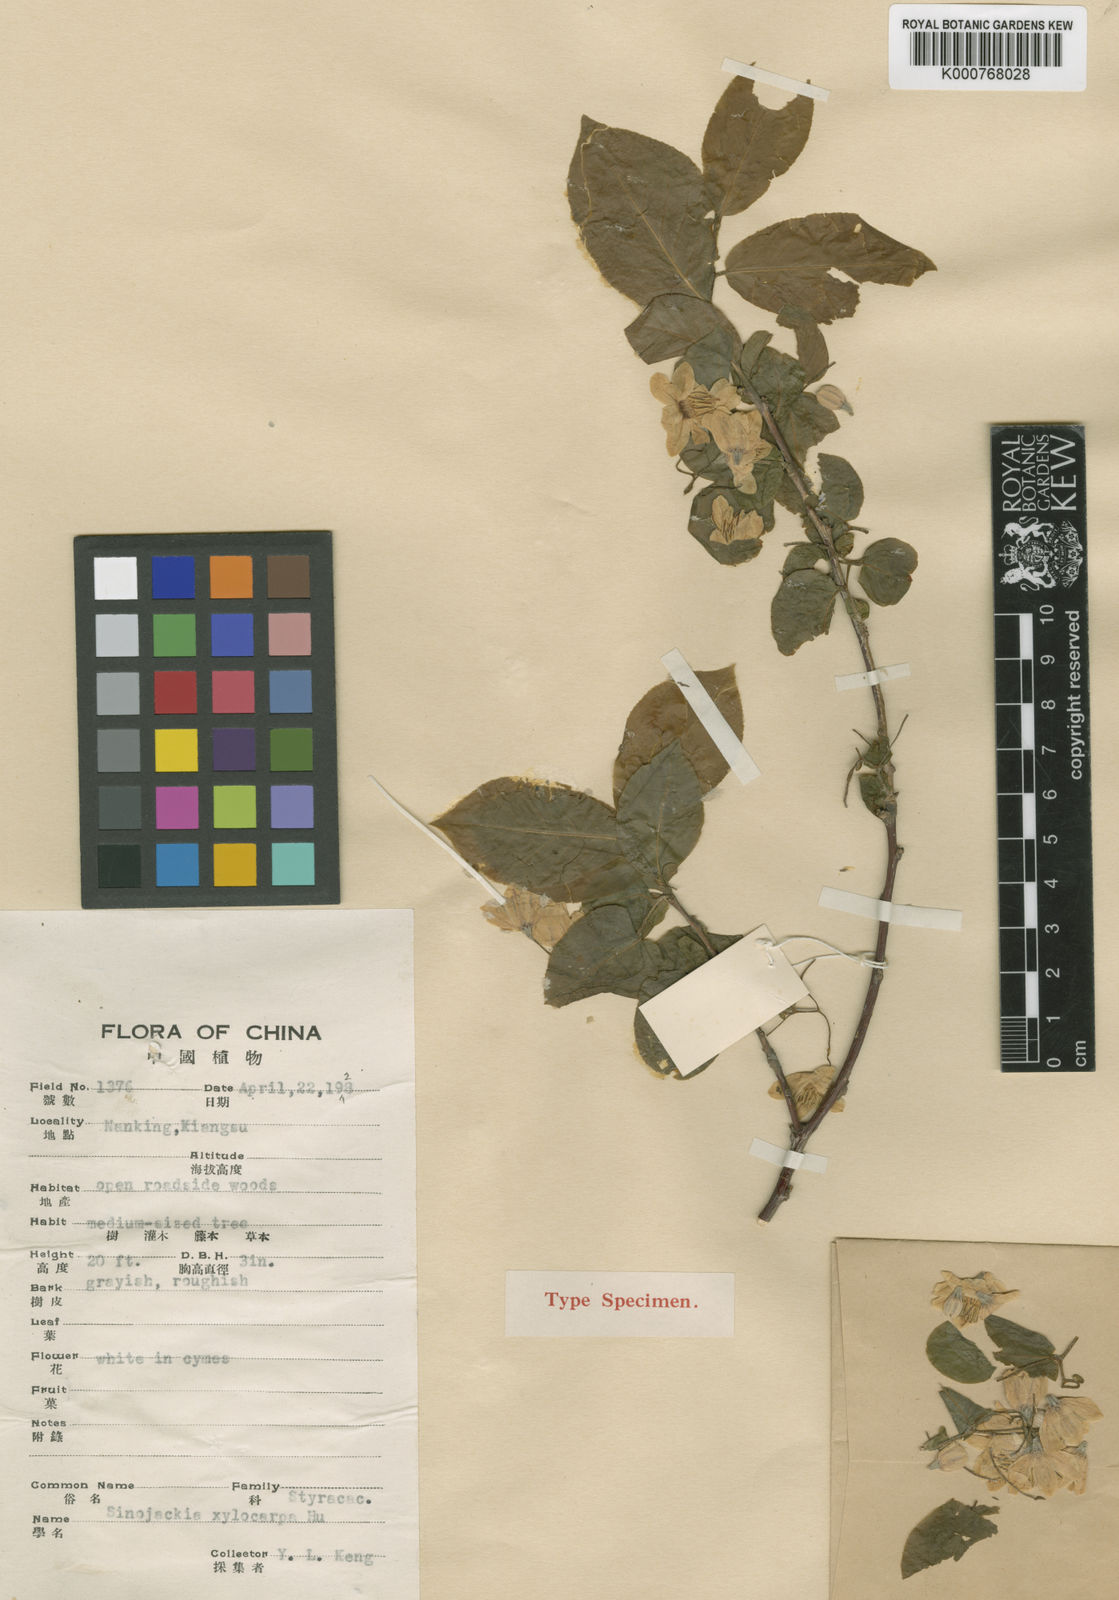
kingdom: Plantae
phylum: Tracheophyta
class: Magnoliopsida
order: Ericales
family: Styracaceae
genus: Sinojackia
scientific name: Sinojackia xylocarpa
